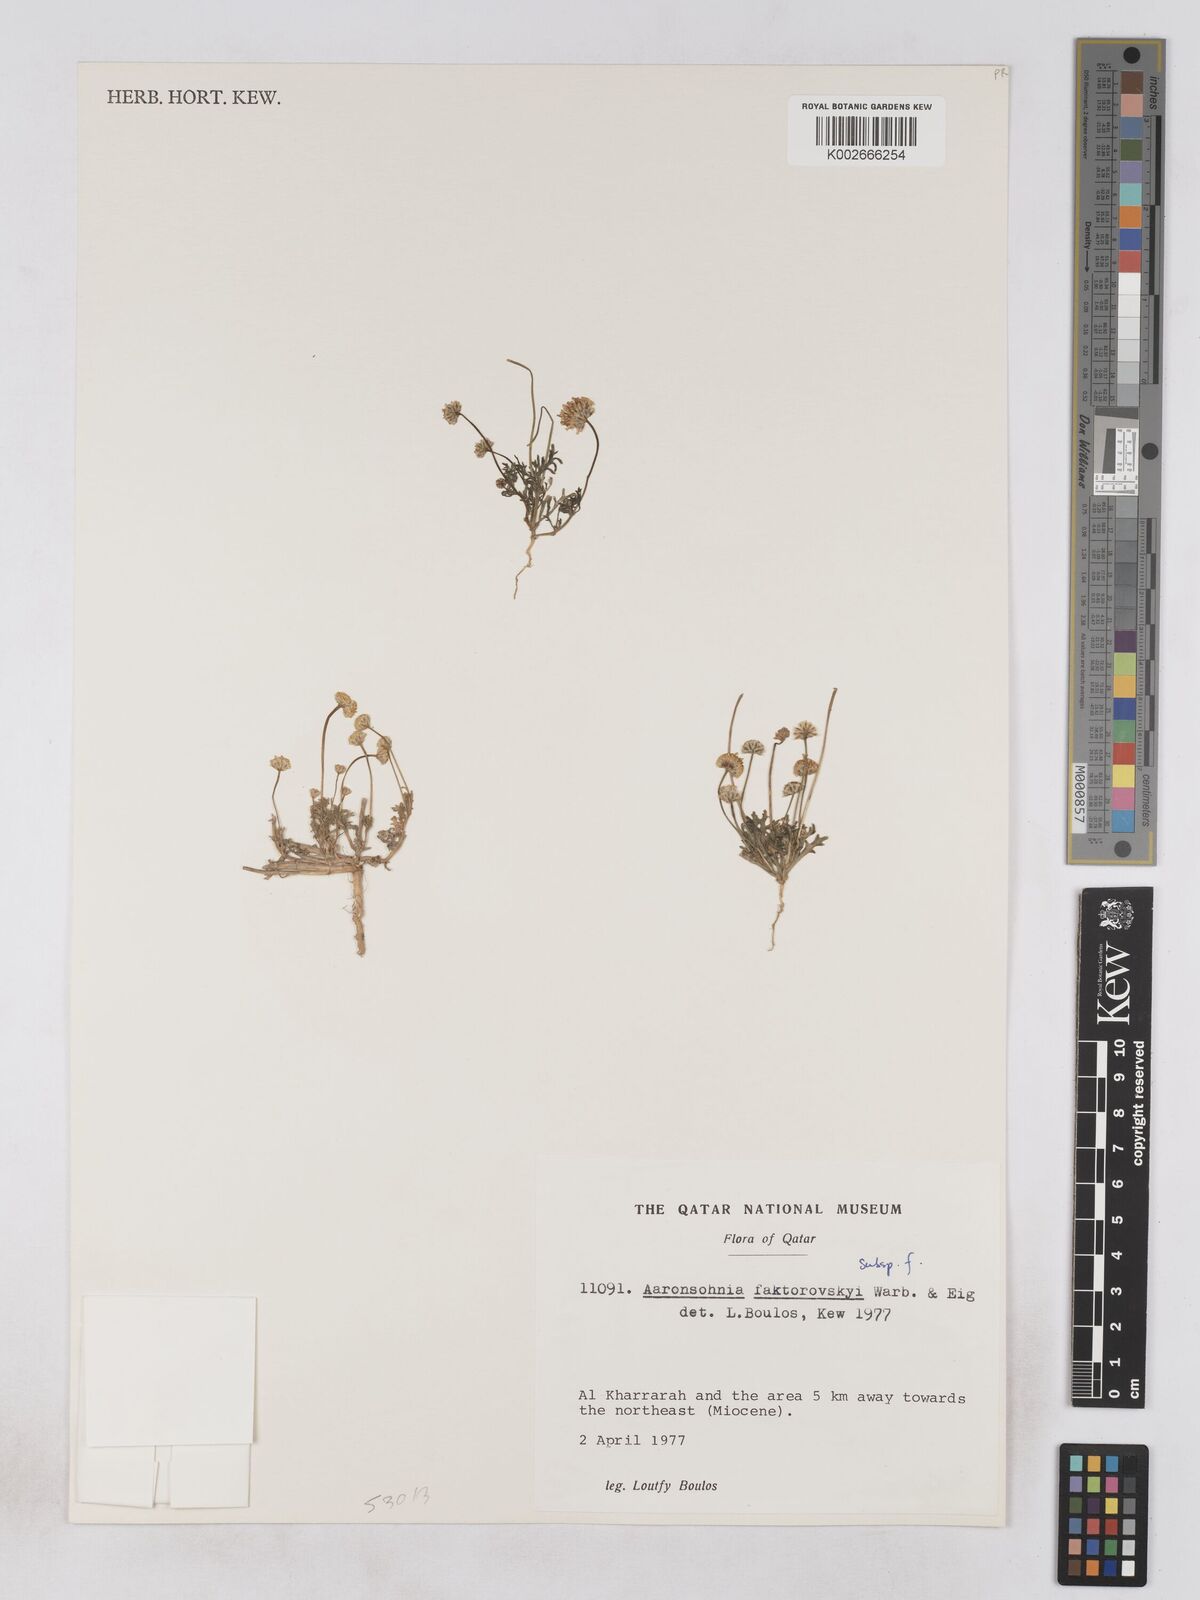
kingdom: Plantae
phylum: Tracheophyta
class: Magnoliopsida
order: Asterales
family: Asteraceae
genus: Otoglyphis
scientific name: Otoglyphis factorovskyi
